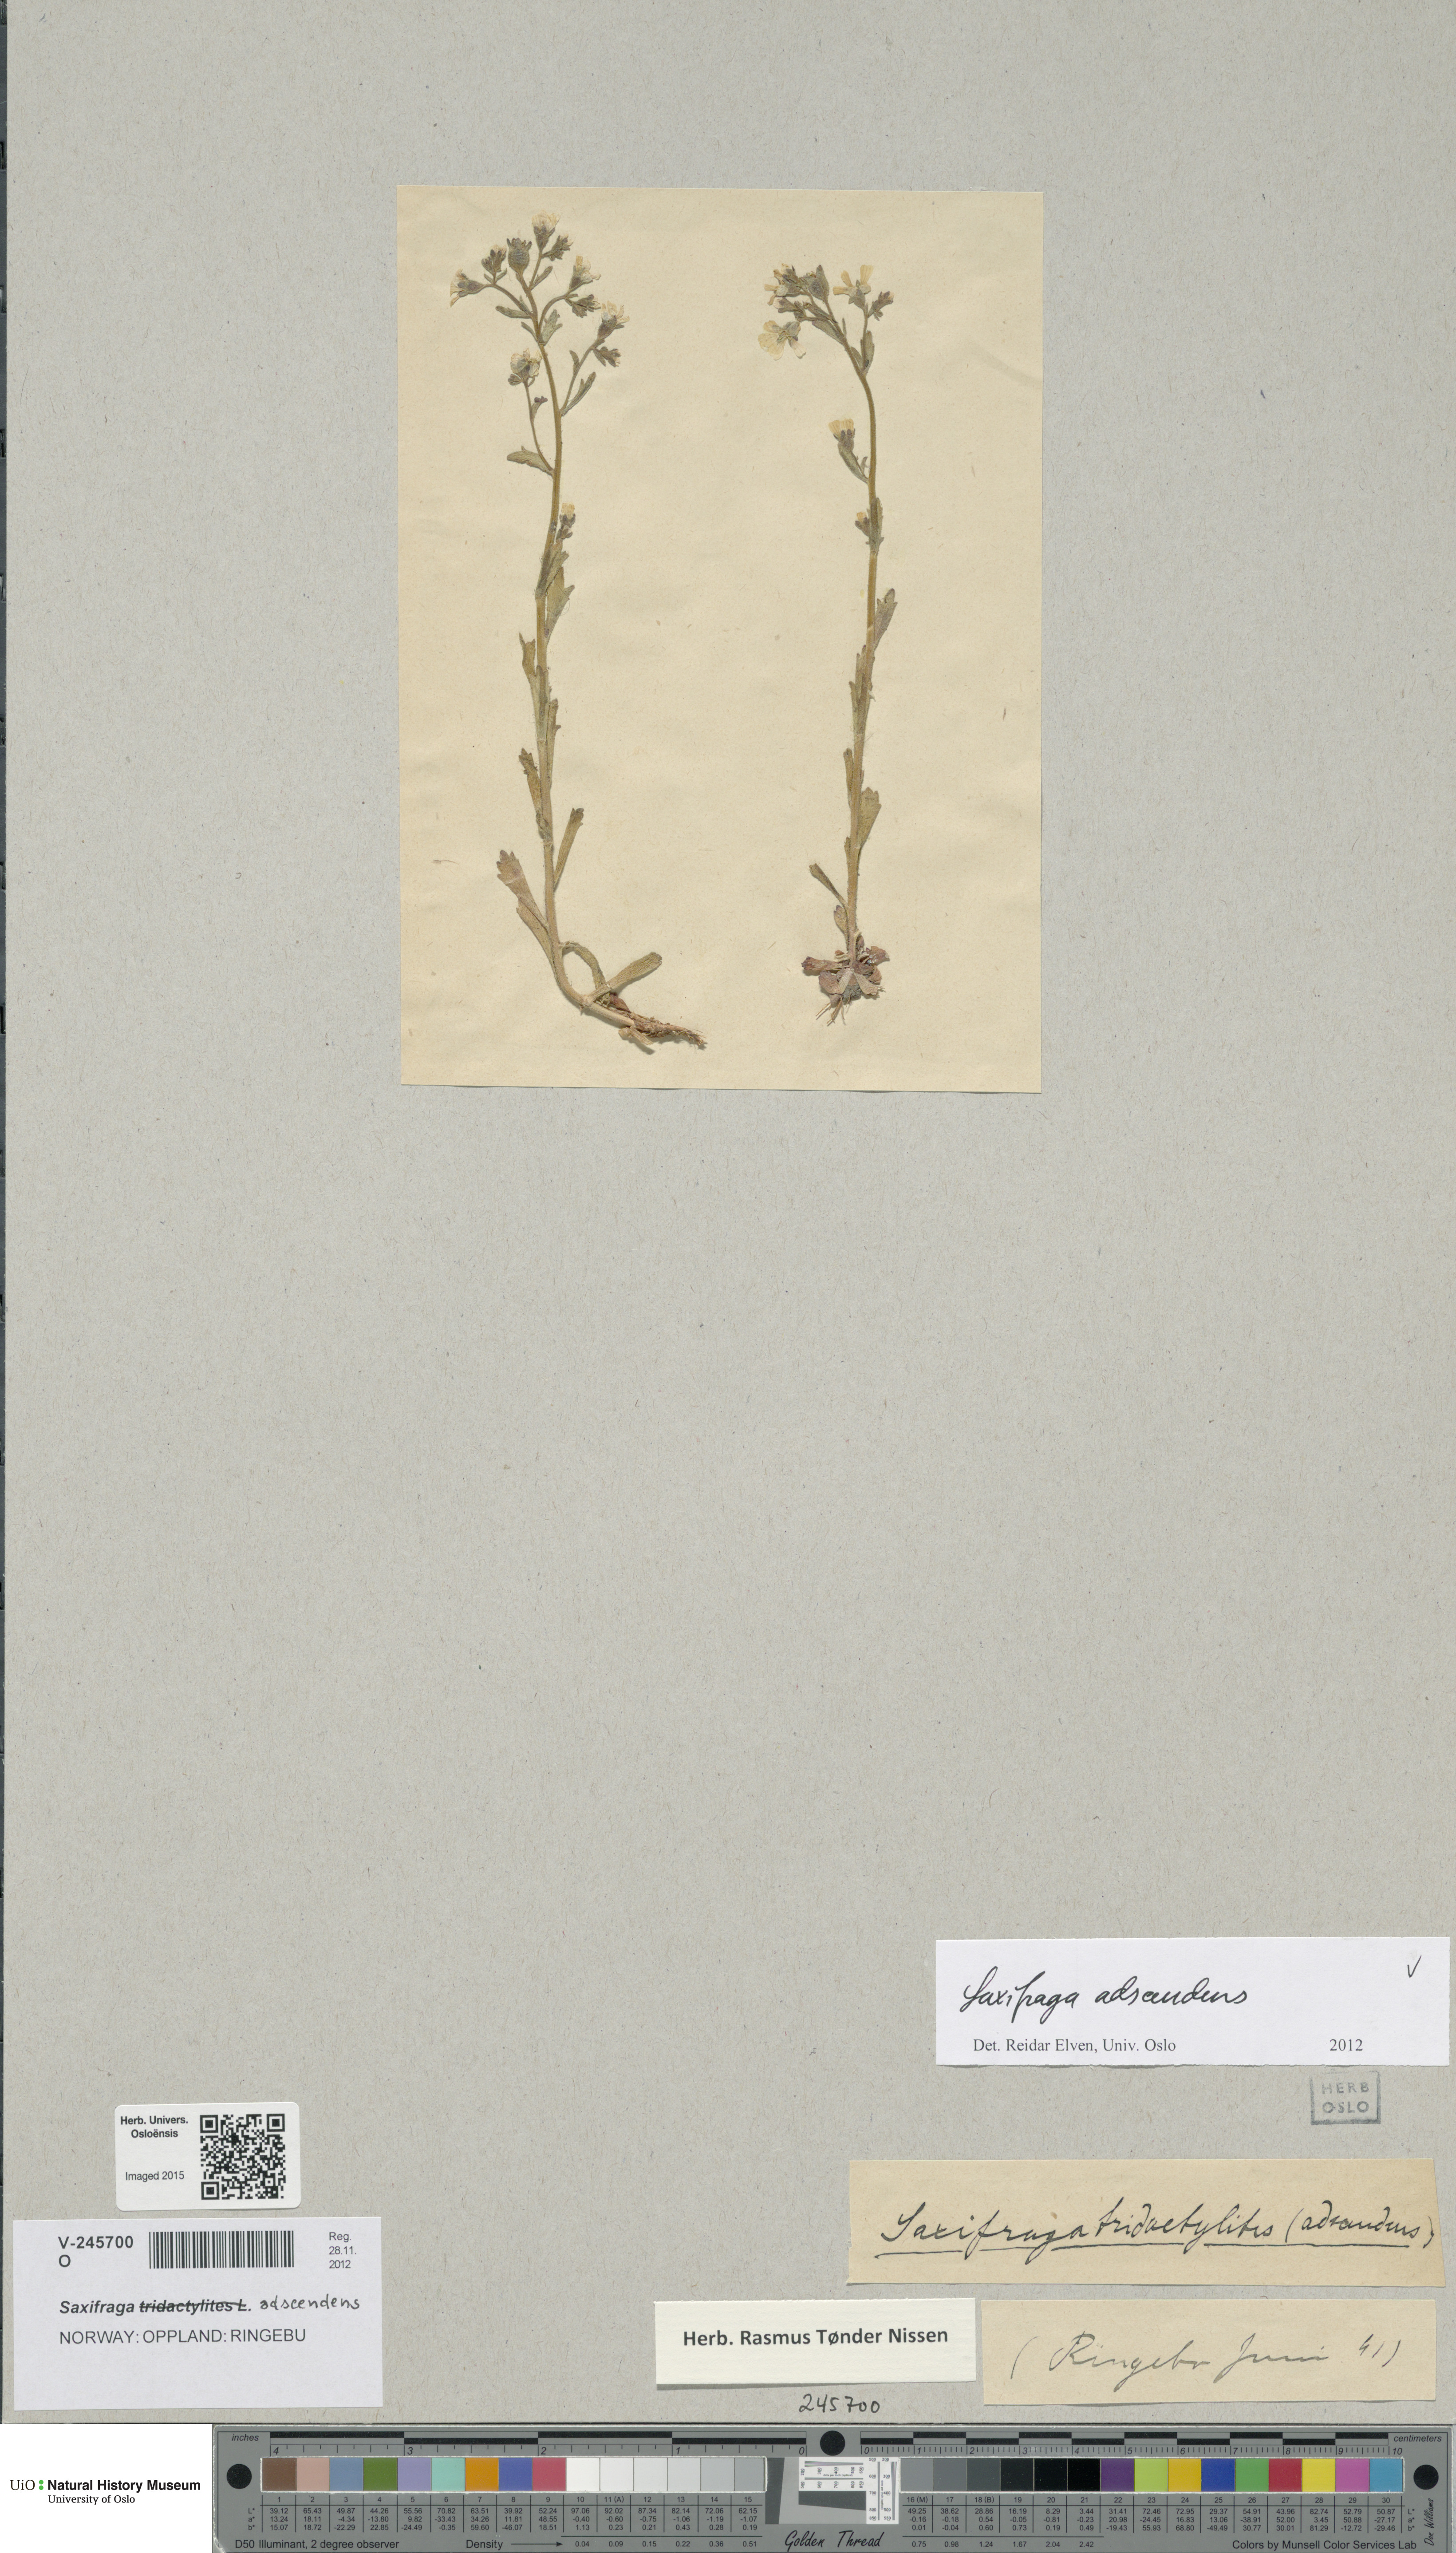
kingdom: Plantae
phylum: Tracheophyta
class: Magnoliopsida
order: Saxifragales
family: Saxifragaceae
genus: Saxifraga
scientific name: Saxifraga adscendens
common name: Ascending saxifrage
